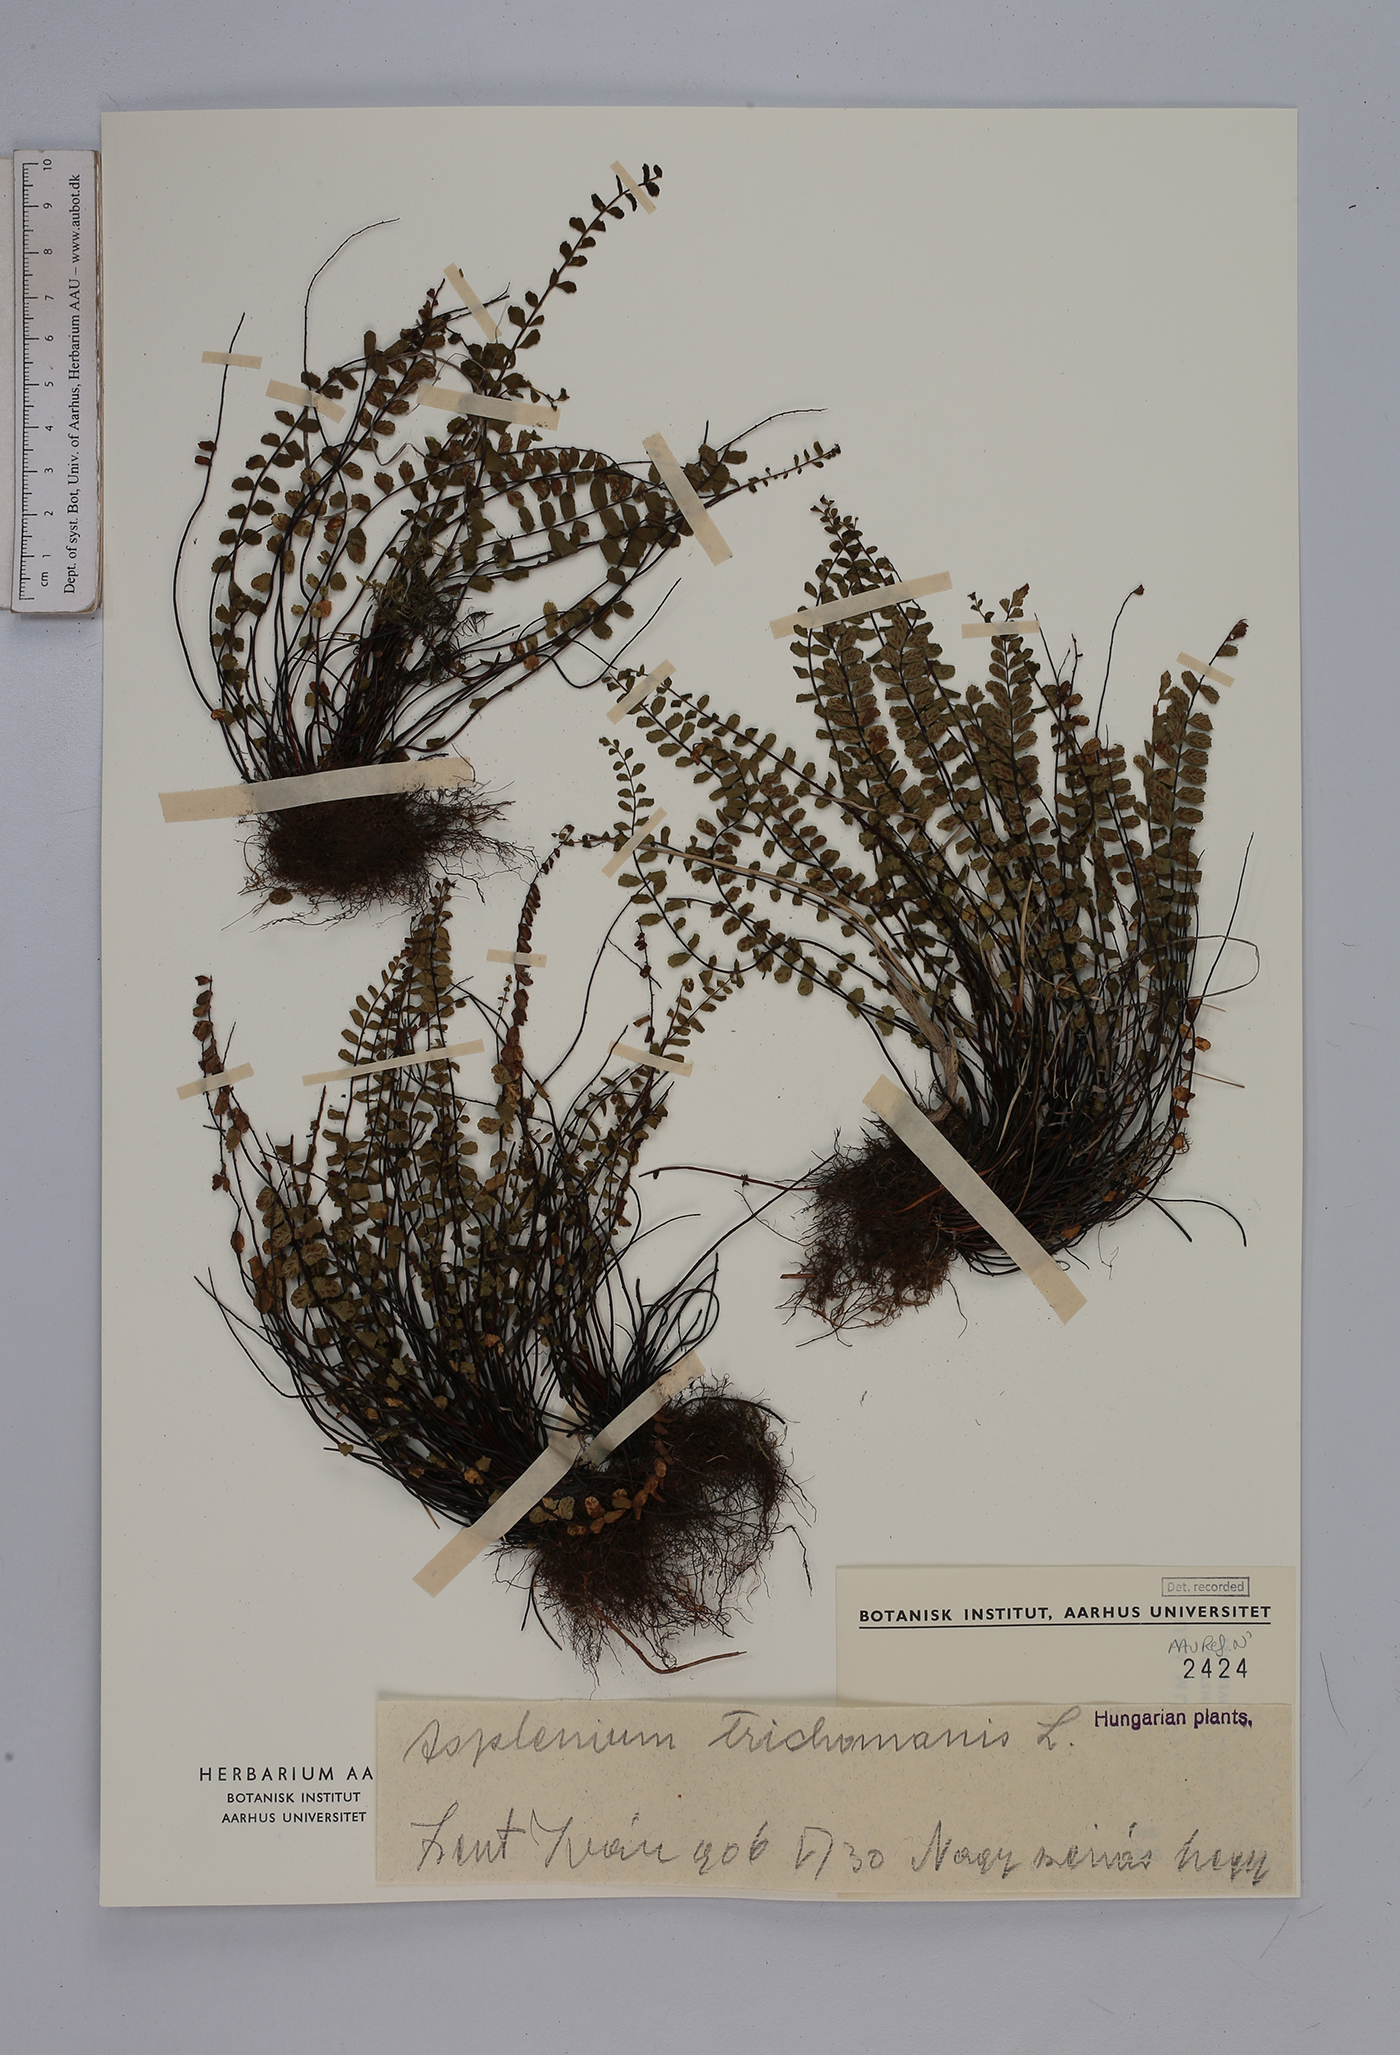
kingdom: Plantae
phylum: Tracheophyta
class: Polypodiopsida
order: Polypodiales
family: Aspleniaceae
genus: Asplenium
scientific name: Asplenium trichomanes
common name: Maidenhair spleenwort
